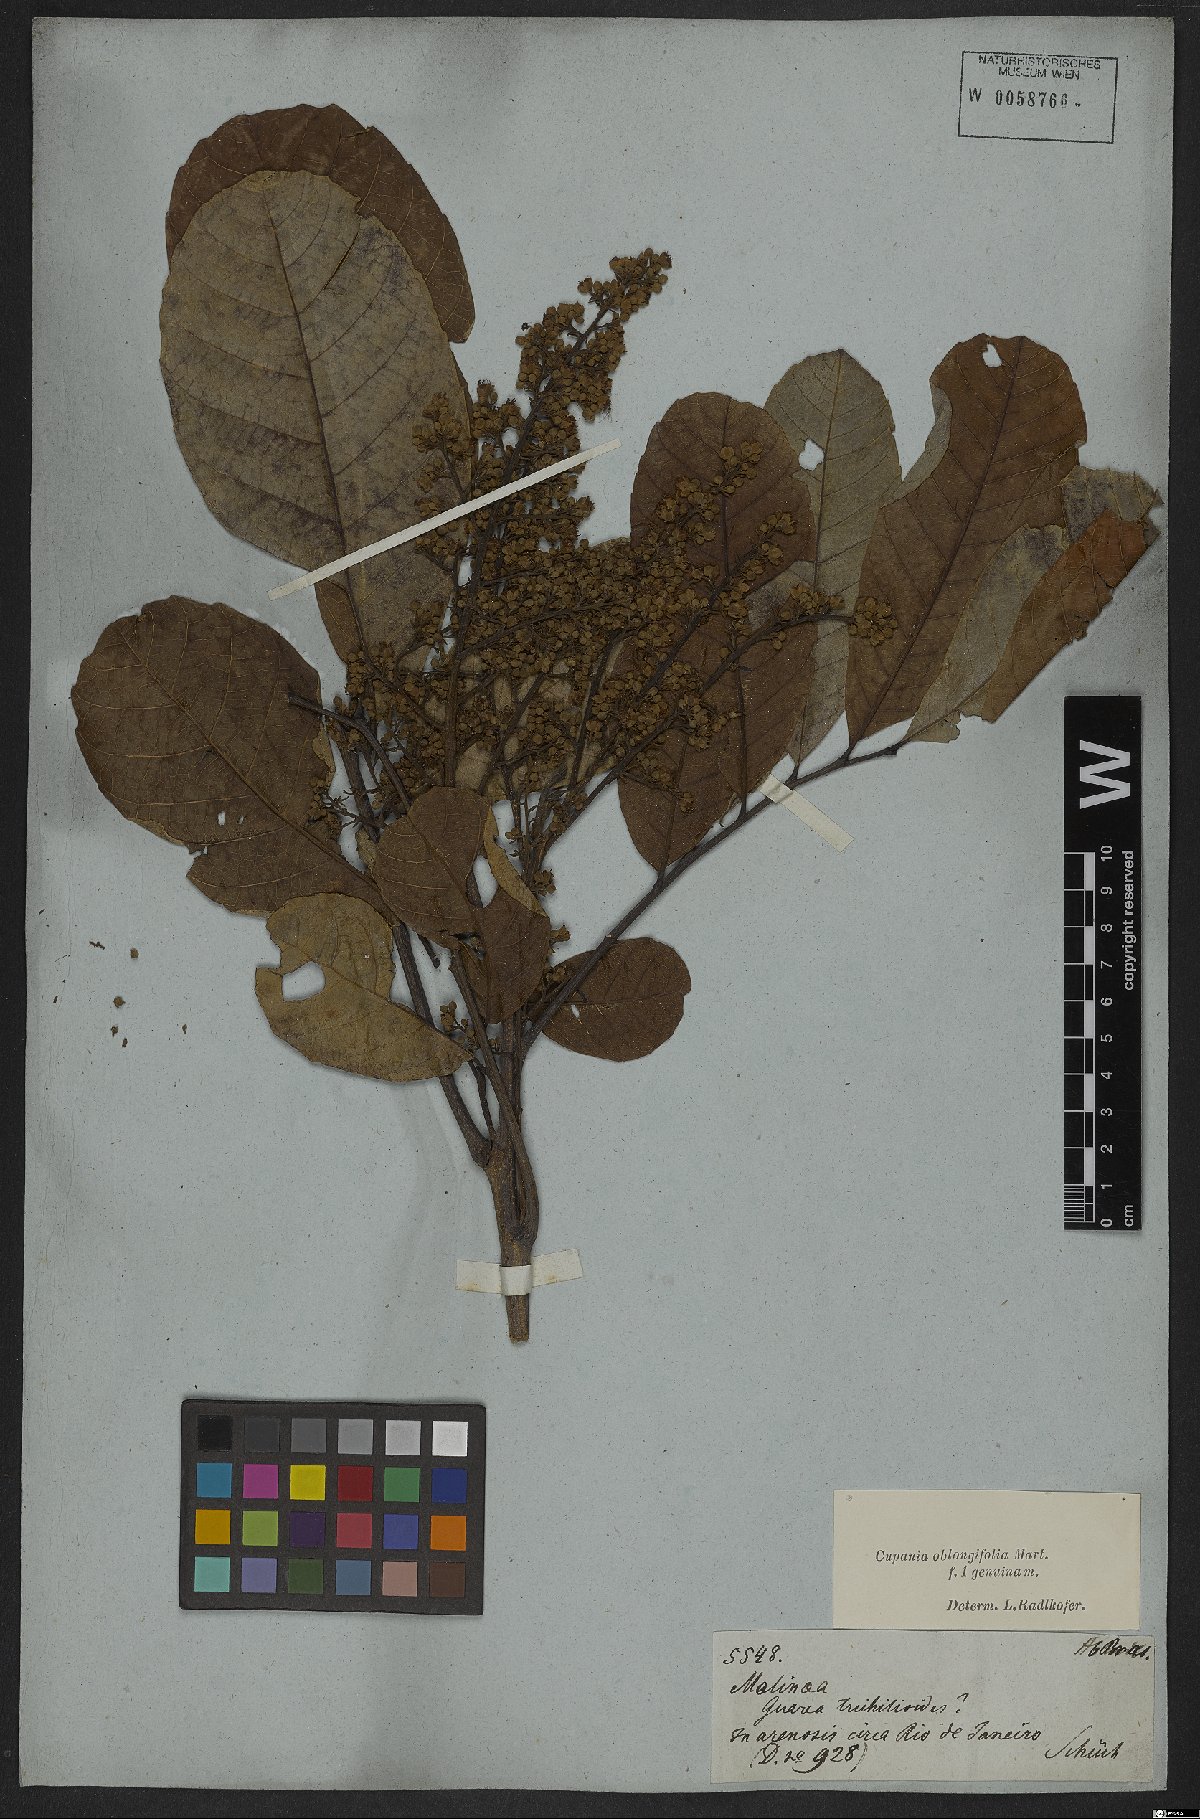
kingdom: Plantae
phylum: Tracheophyta
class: Magnoliopsida
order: Sapindales
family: Sapindaceae
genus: Cupania
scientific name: Cupania oblongifolia
